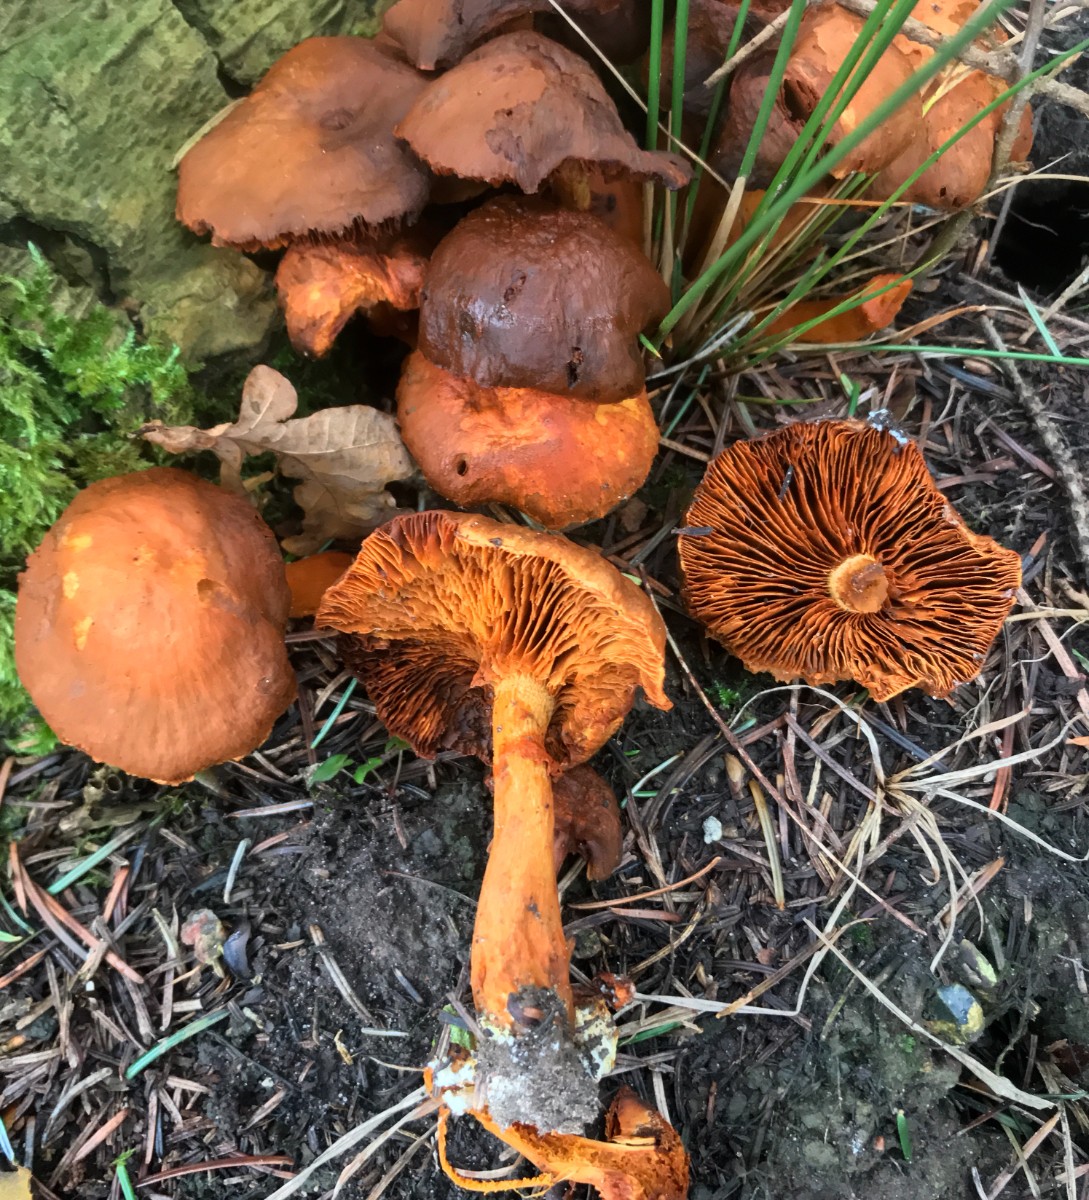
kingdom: Fungi
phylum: Basidiomycota
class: Agaricomycetes
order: Agaricales
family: Hymenogastraceae
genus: Gymnopilus
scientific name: Gymnopilus penetrans
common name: plettet flammehat
